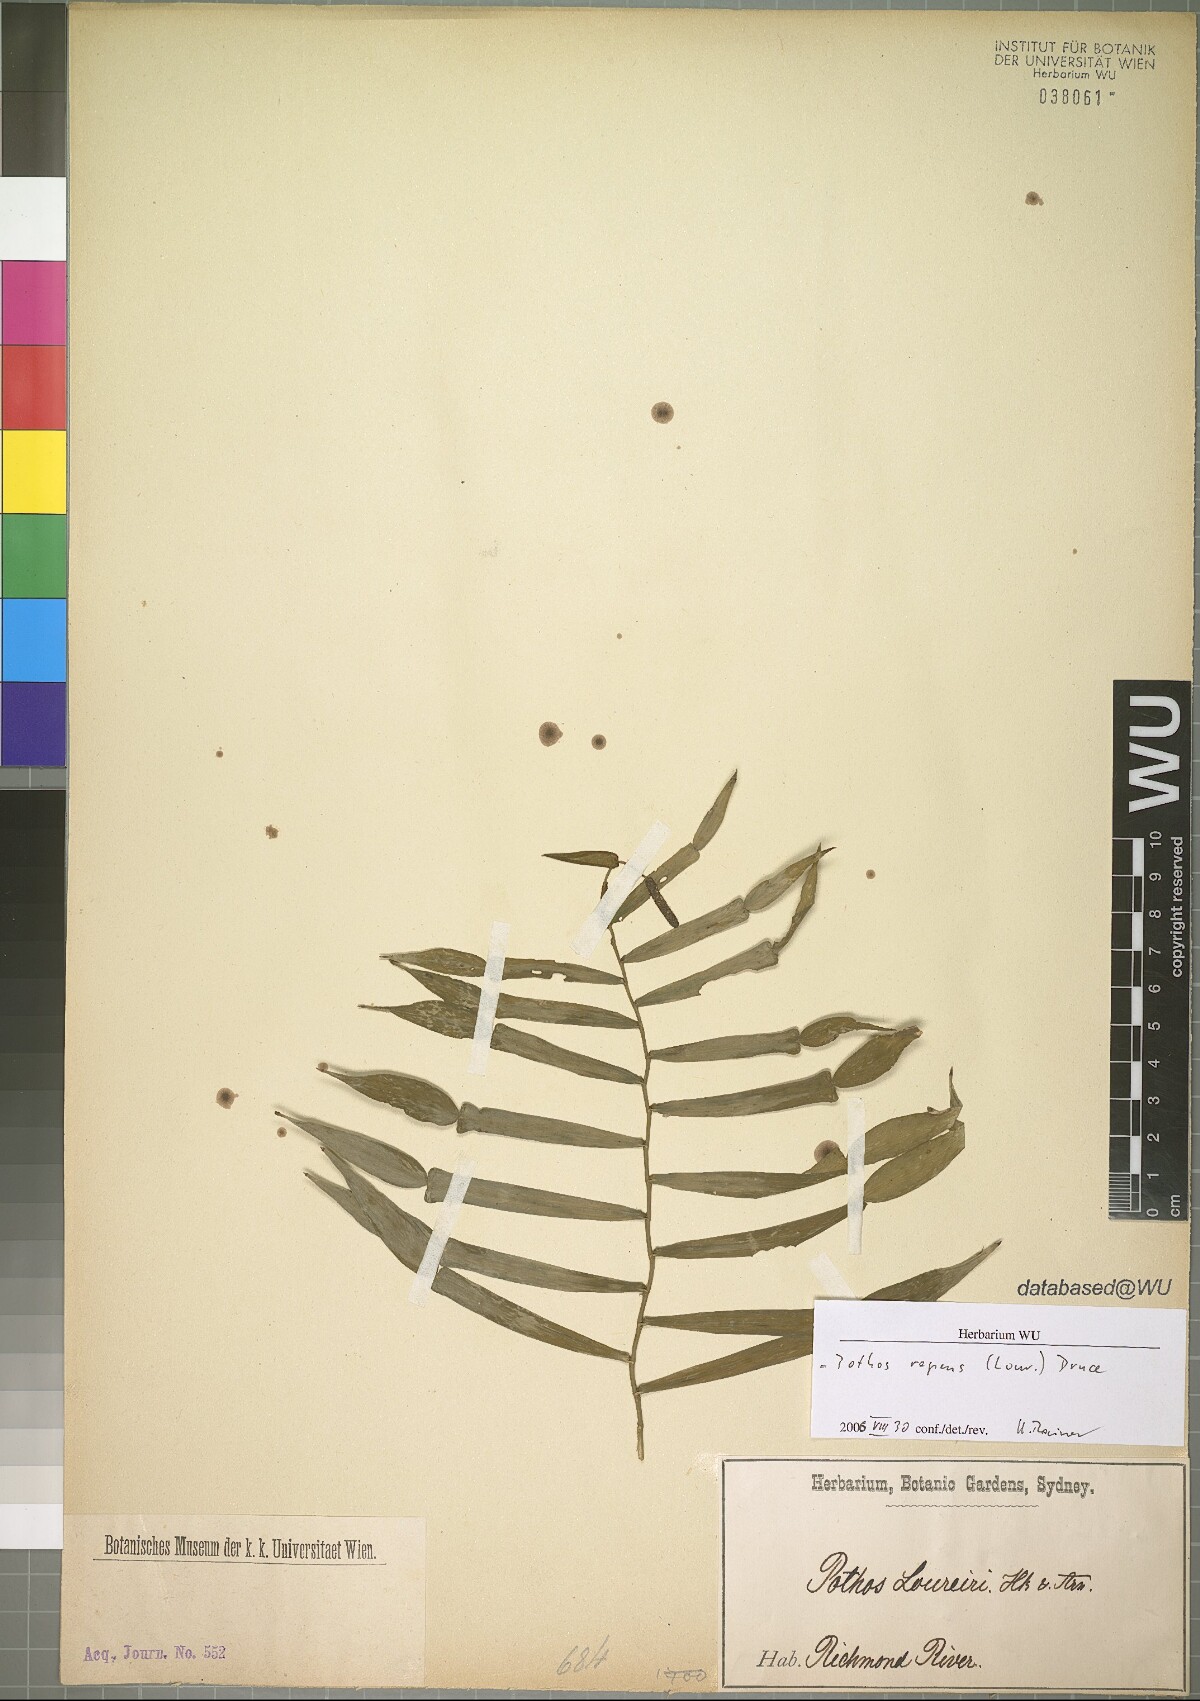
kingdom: Plantae
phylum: Tracheophyta
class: Liliopsida
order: Alismatales
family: Araceae
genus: Pothos
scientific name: Pothos repens
